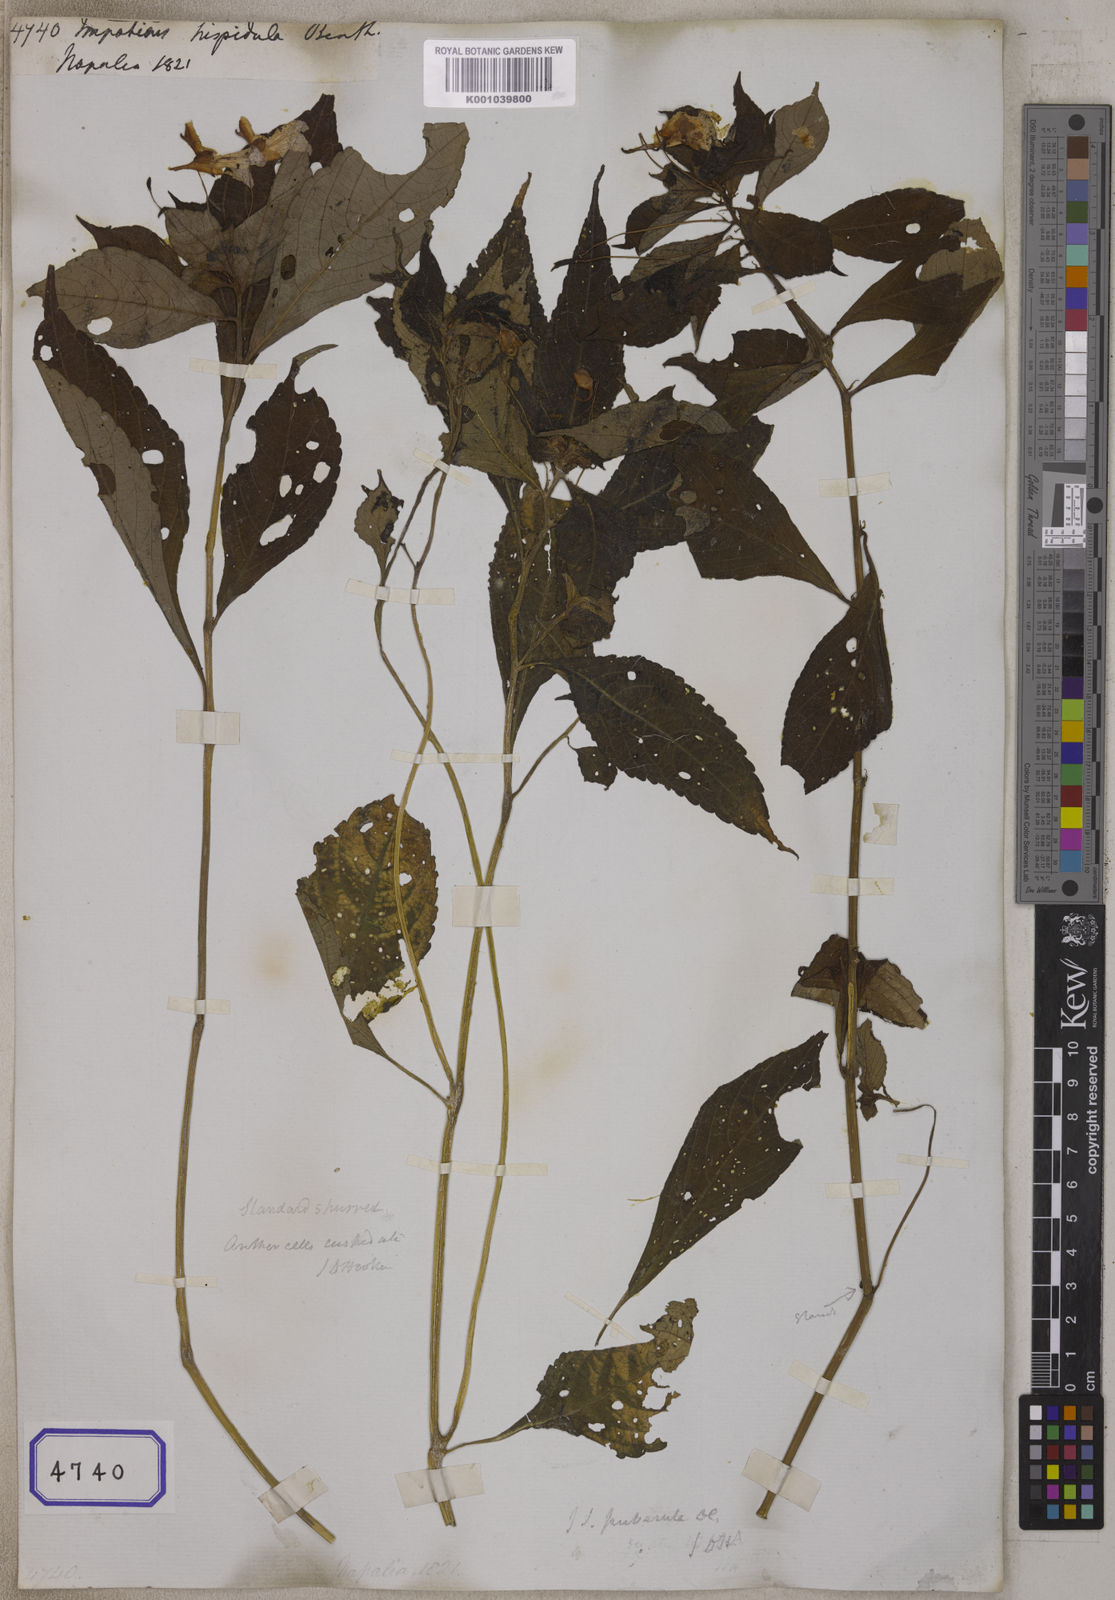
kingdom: Plantae
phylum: Tracheophyta
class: Magnoliopsida
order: Ericales
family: Balsaminaceae
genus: Impatiens
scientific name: Impatiens puberula
